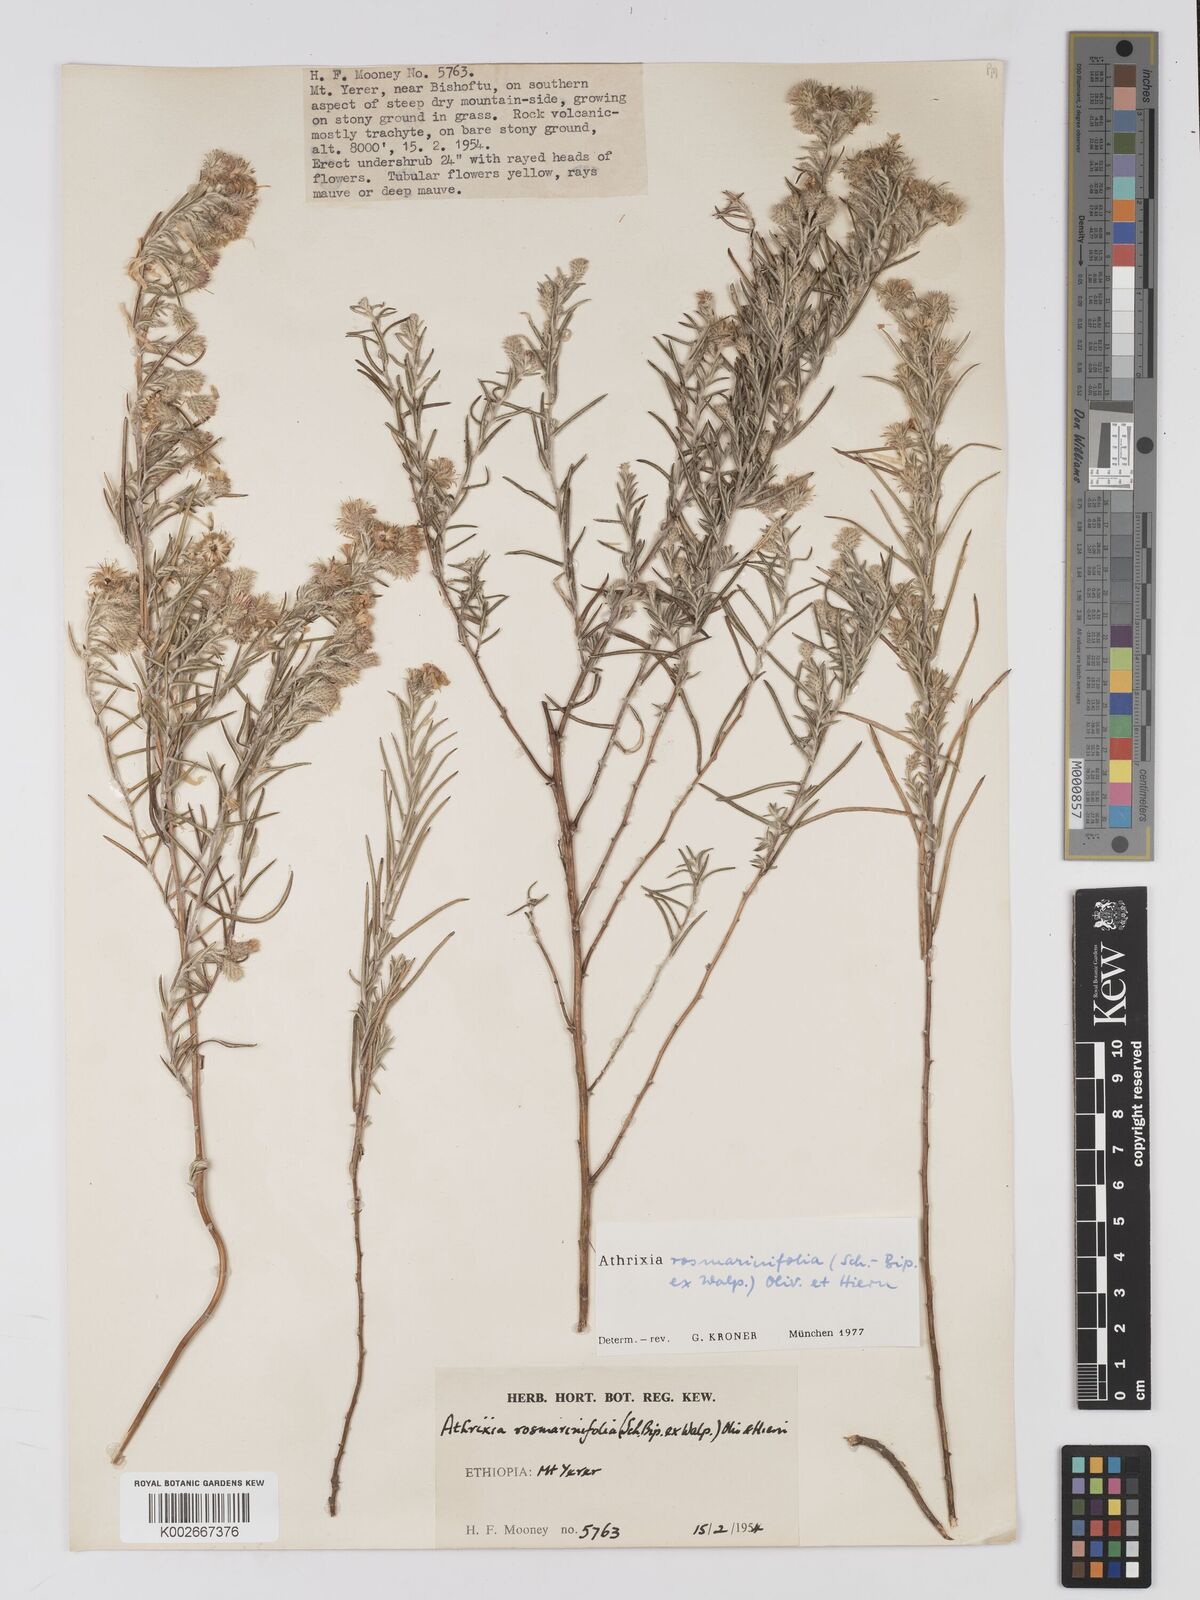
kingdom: Plantae
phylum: Tracheophyta
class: Magnoliopsida
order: Asterales
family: Asteraceae
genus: Athrixia
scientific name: Athrixia rosmarinifolia
